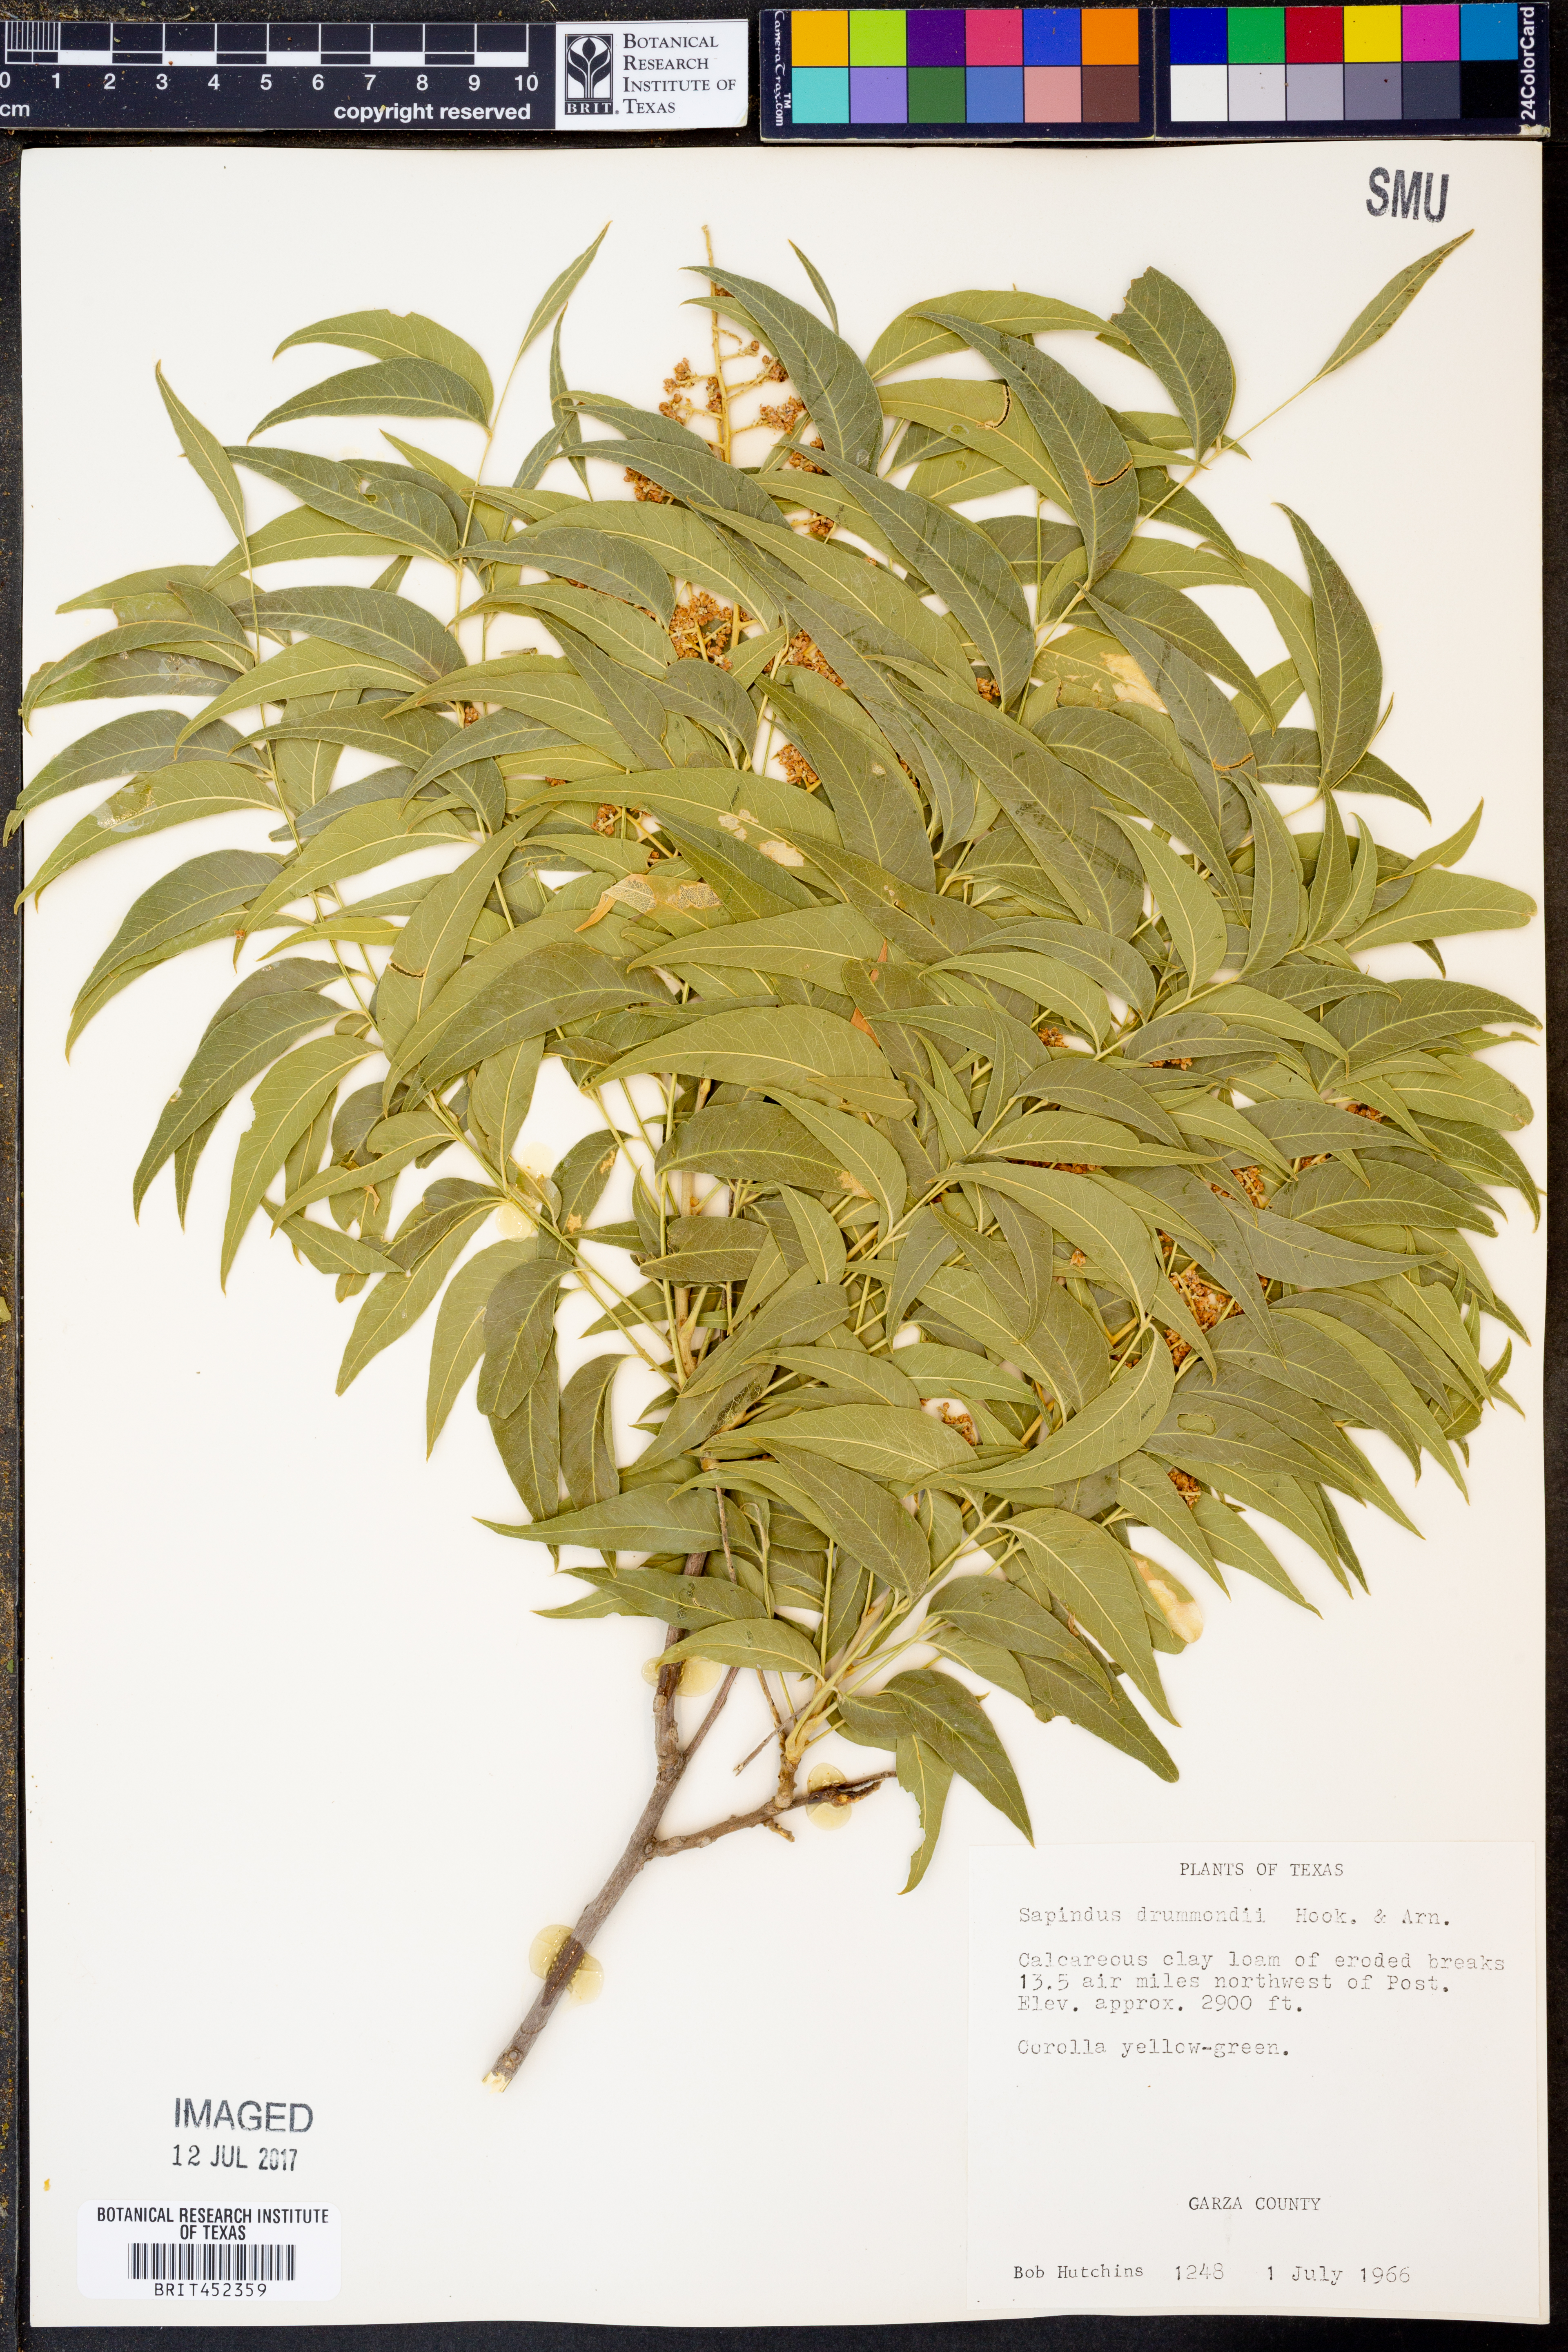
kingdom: Plantae
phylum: Tracheophyta
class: Magnoliopsida
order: Sapindales
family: Sapindaceae
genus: Sapindus
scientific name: Sapindus drummondii
